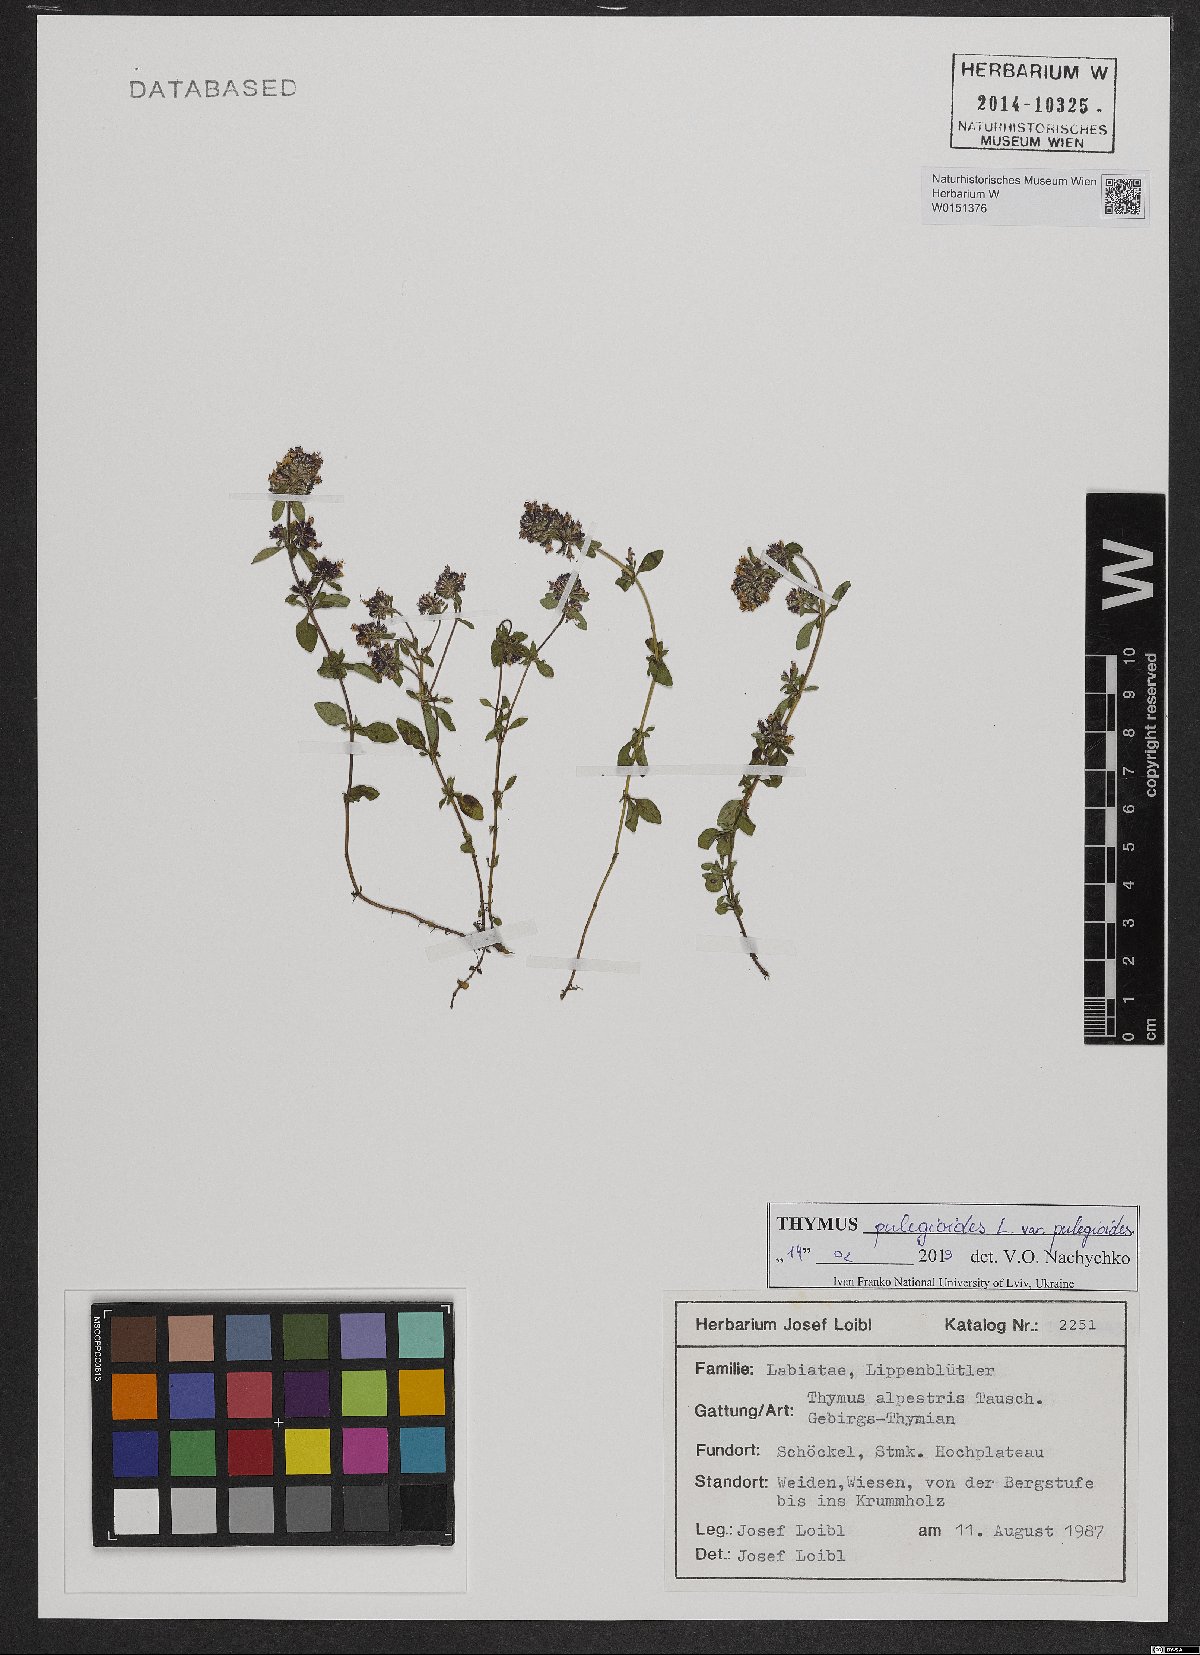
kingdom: Plantae
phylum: Tracheophyta
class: Magnoliopsida
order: Lamiales
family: Lamiaceae
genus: Thymus
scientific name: Thymus alpestris
